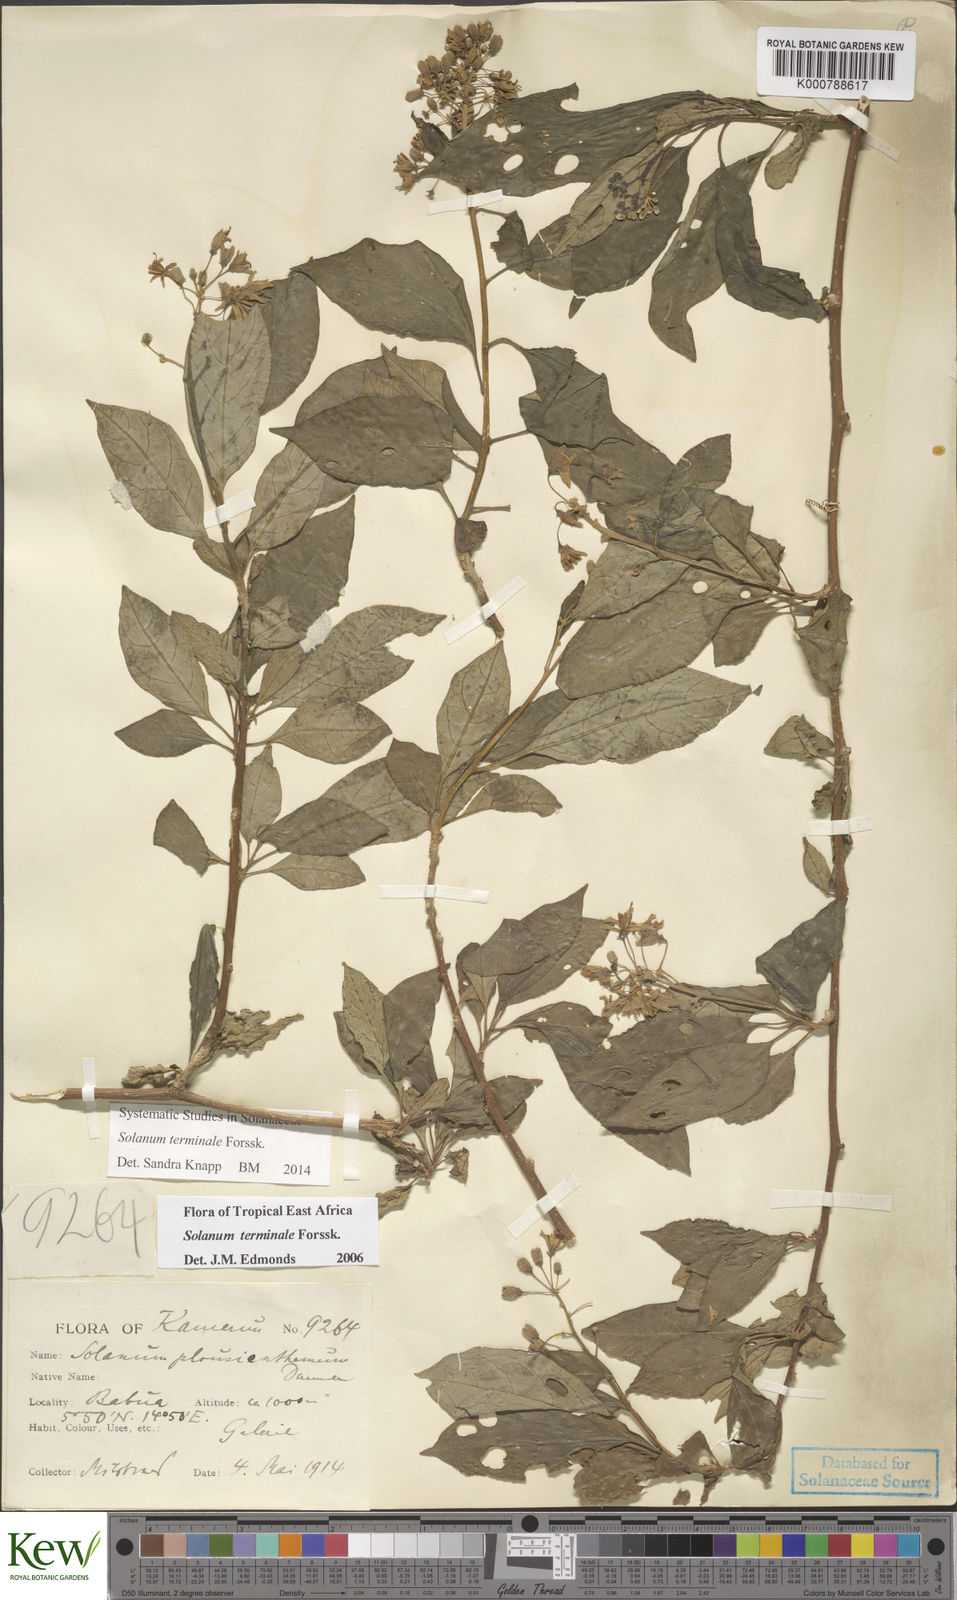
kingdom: Plantae
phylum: Tracheophyta
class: Magnoliopsida
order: Solanales
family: Solanaceae
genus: Solanum
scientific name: Solanum terminale
